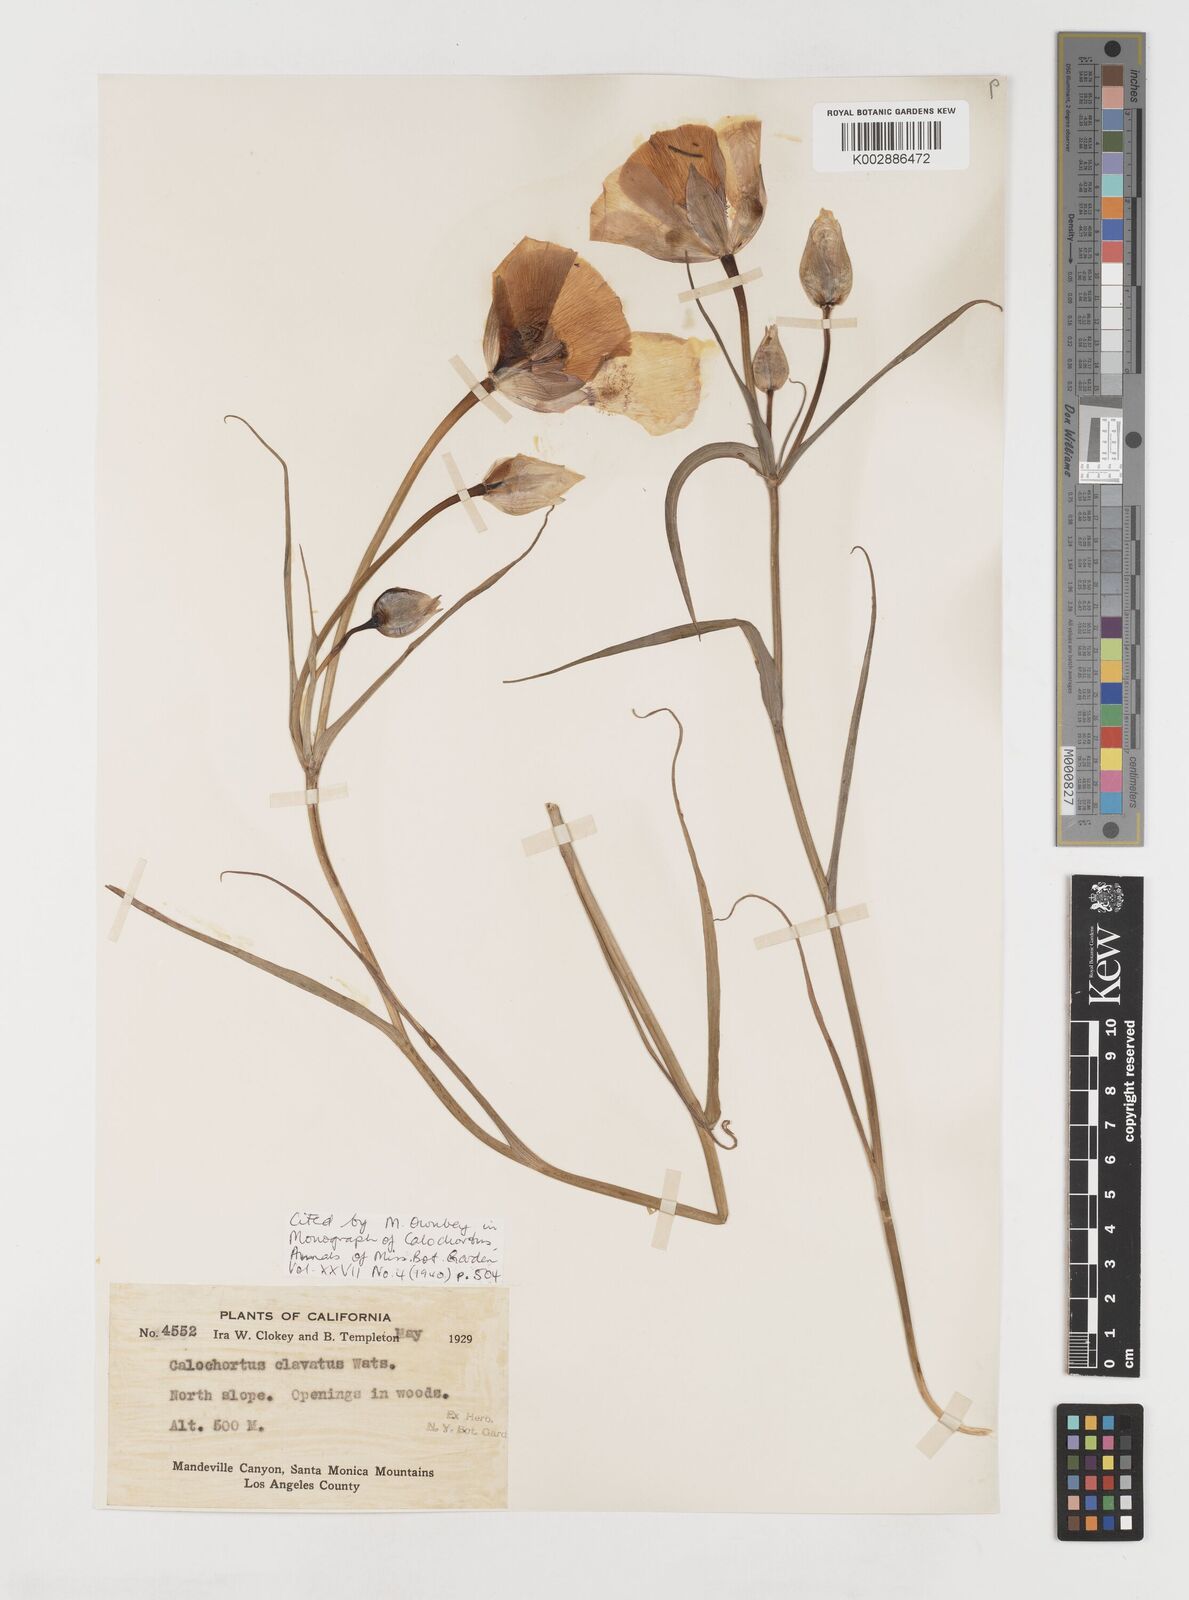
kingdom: Plantae
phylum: Tracheophyta
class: Liliopsida
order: Liliales
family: Liliaceae
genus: Calochortus
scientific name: Calochortus clavatus
